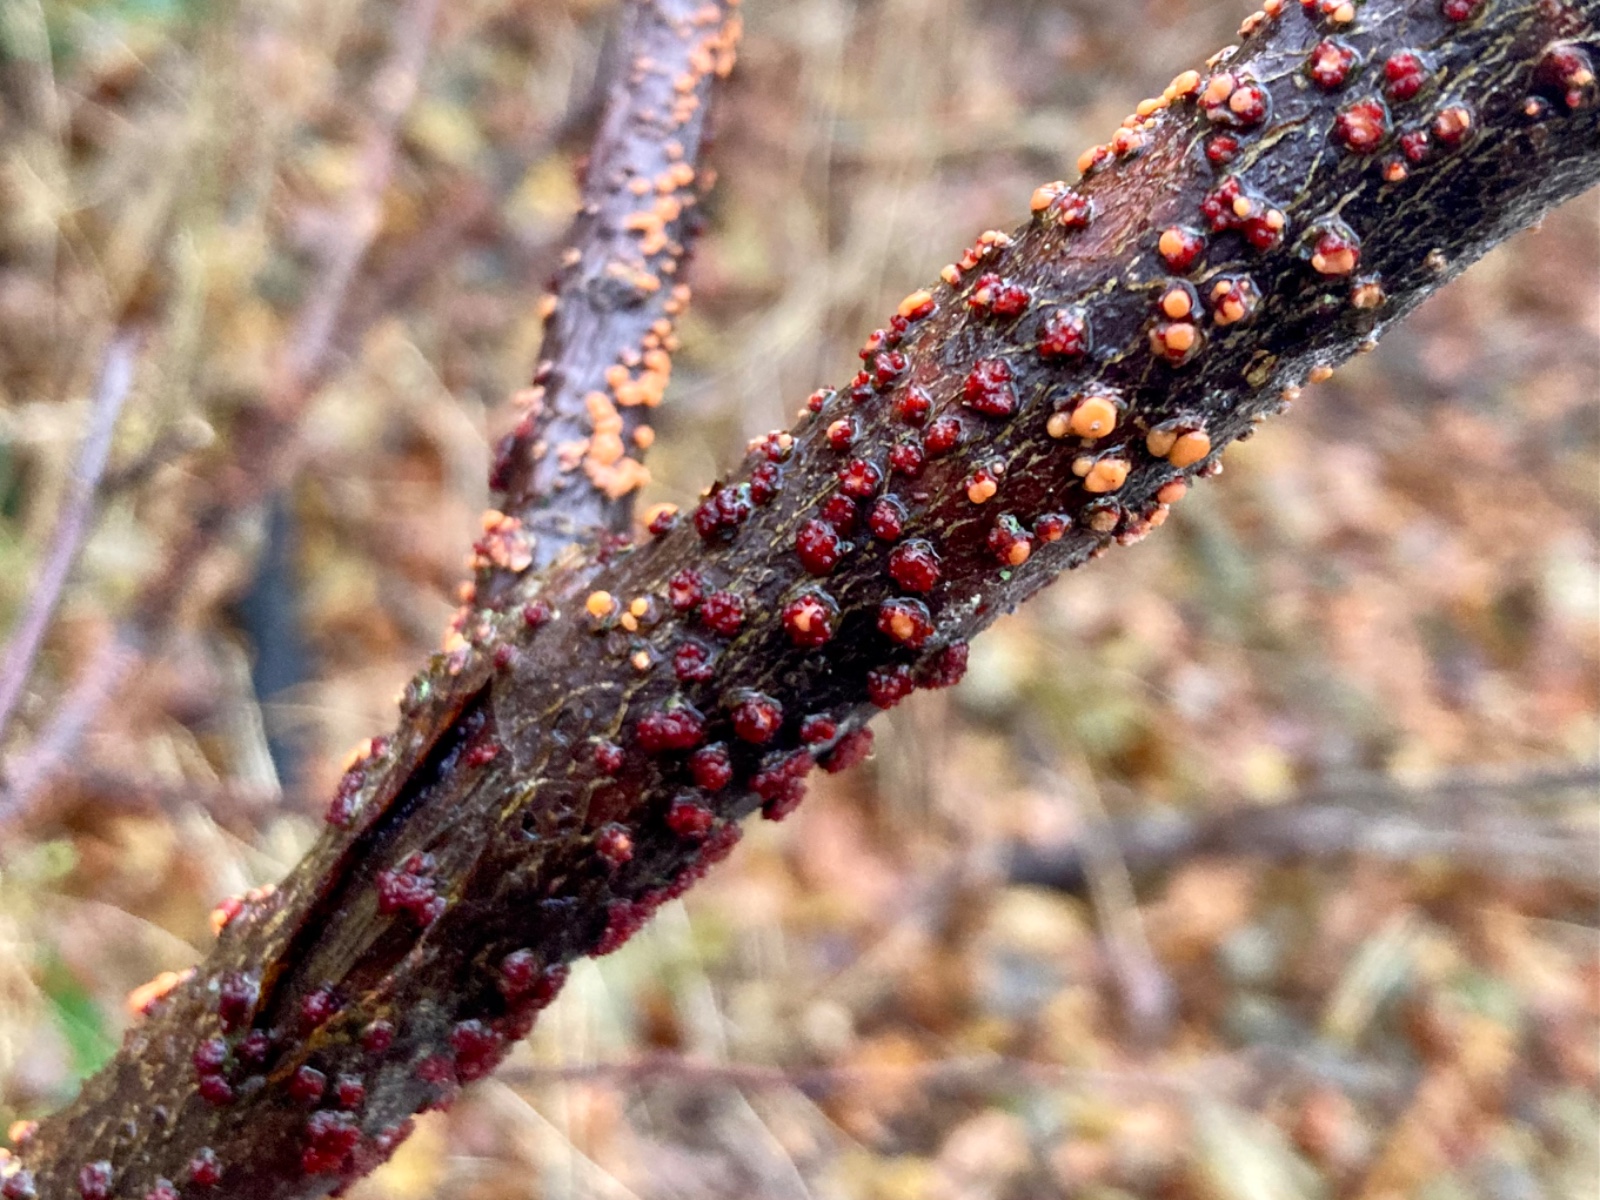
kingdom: Fungi
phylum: Ascomycota
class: Sordariomycetes
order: Hypocreales
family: Nectriaceae
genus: Nectria
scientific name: Nectria cinnabarina
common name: almindelig cinnobersvamp
